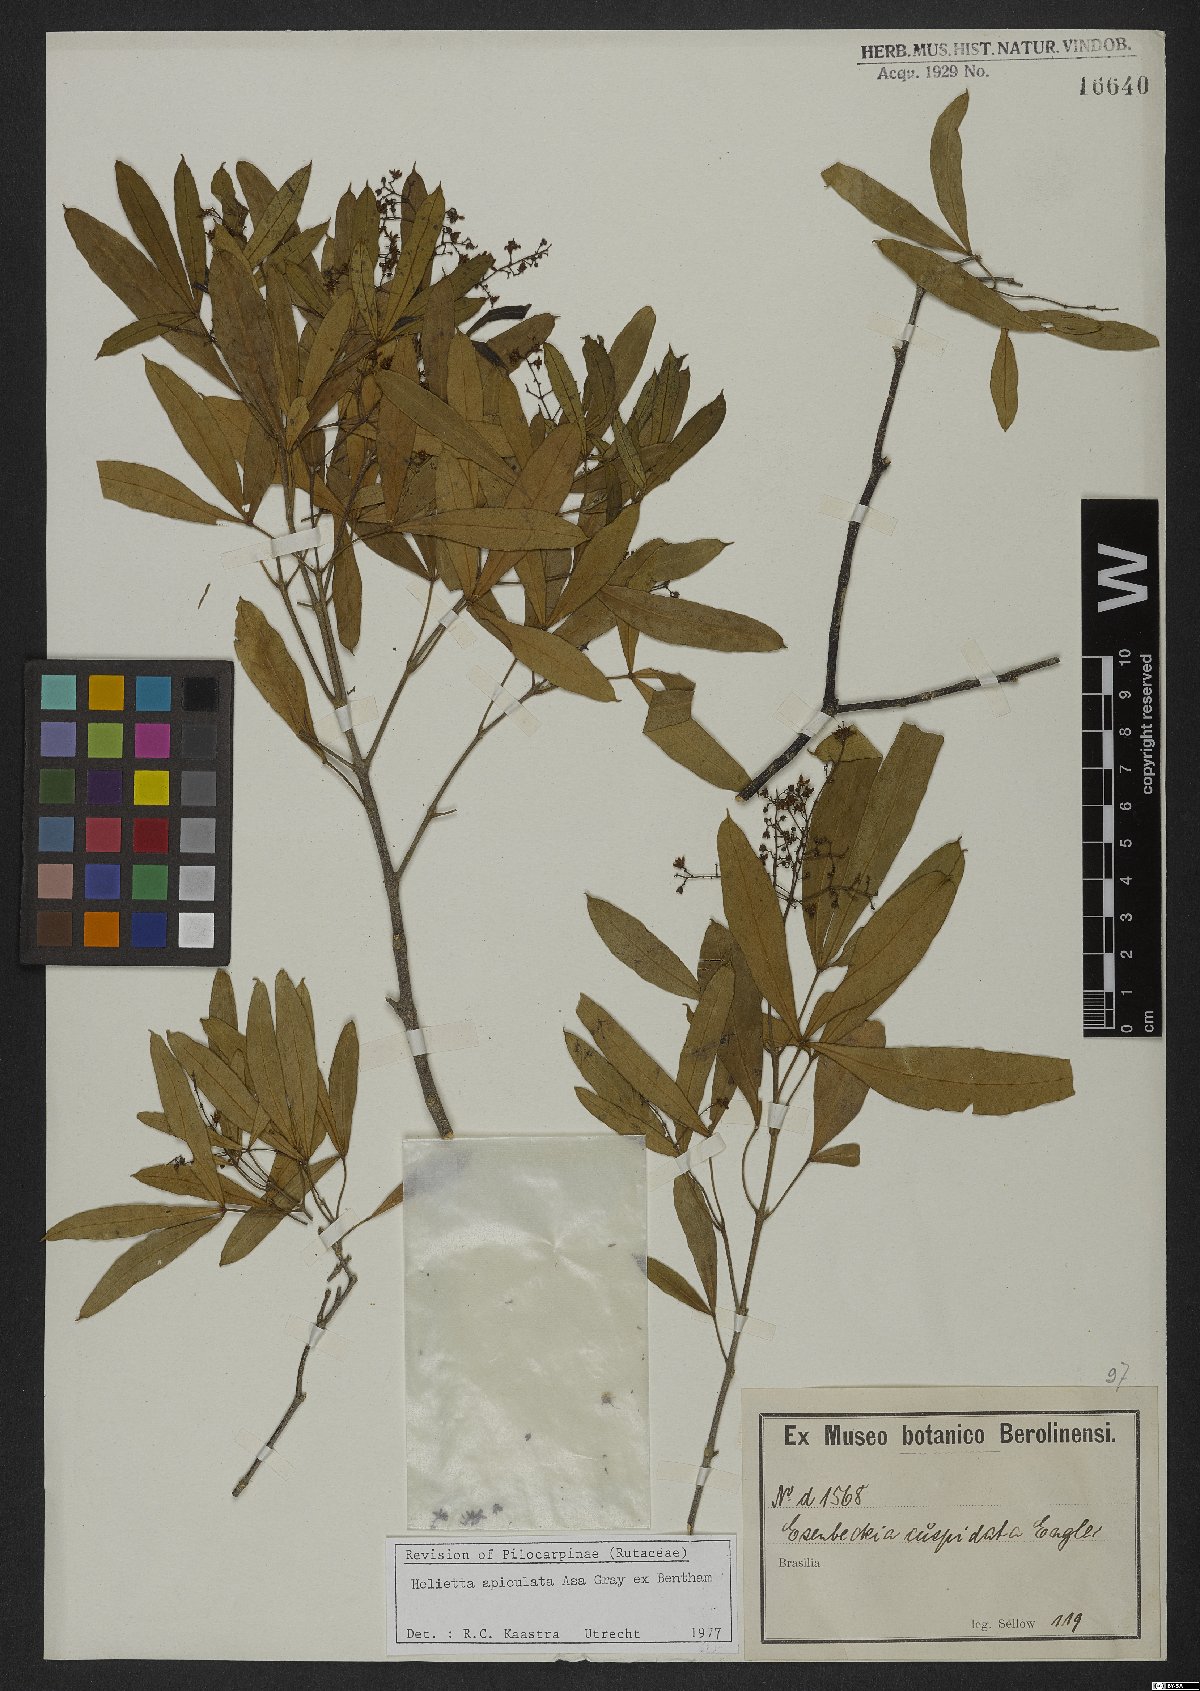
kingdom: Plantae
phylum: Tracheophyta
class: Magnoliopsida
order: Sapindales
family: Rutaceae
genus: Helietta
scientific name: Helietta apiculata
